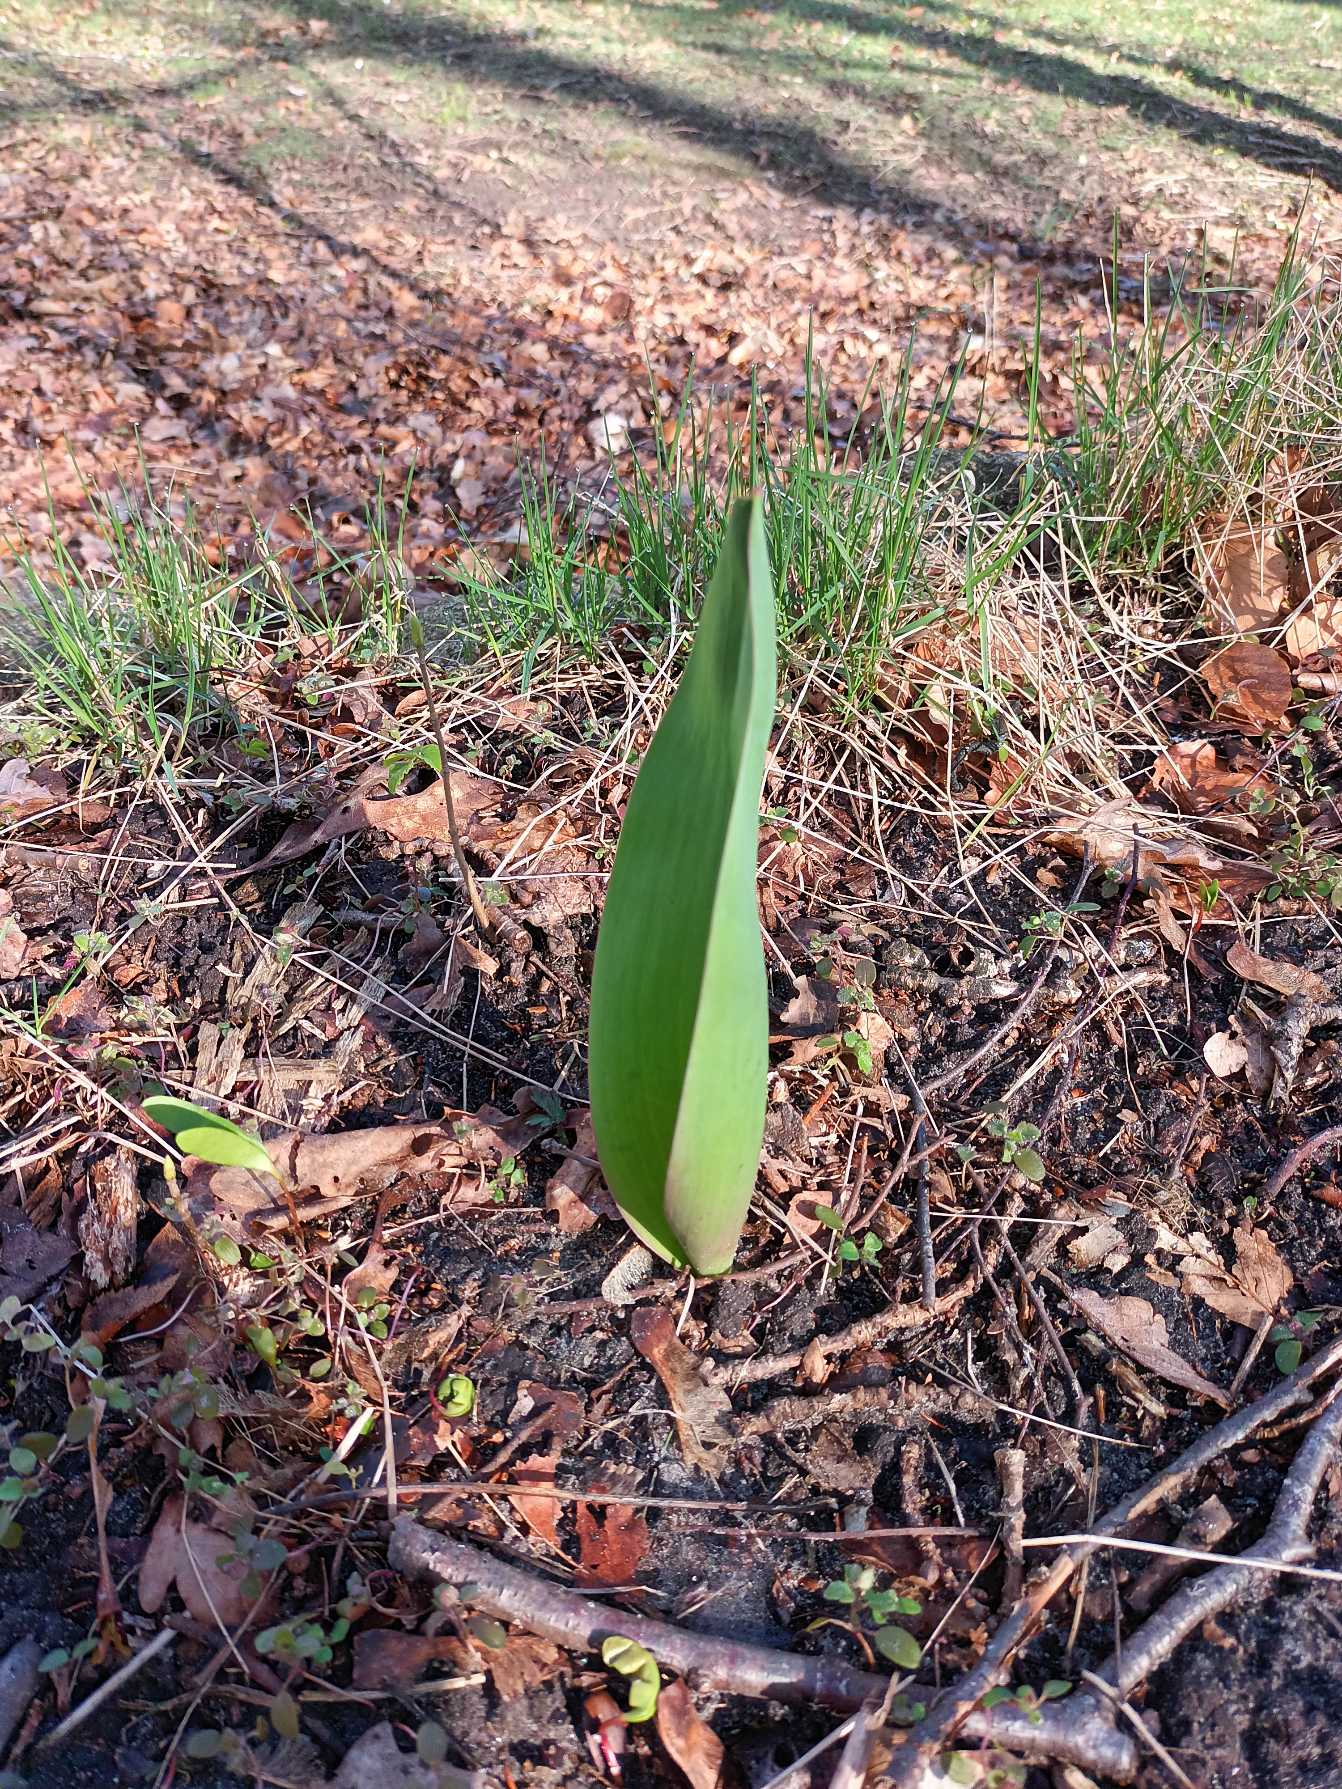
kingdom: Plantae
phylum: Tracheophyta
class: Liliopsida
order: Liliales
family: Liliaceae
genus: Tulipa
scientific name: Tulipa gesneriana
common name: Have-tulipan
